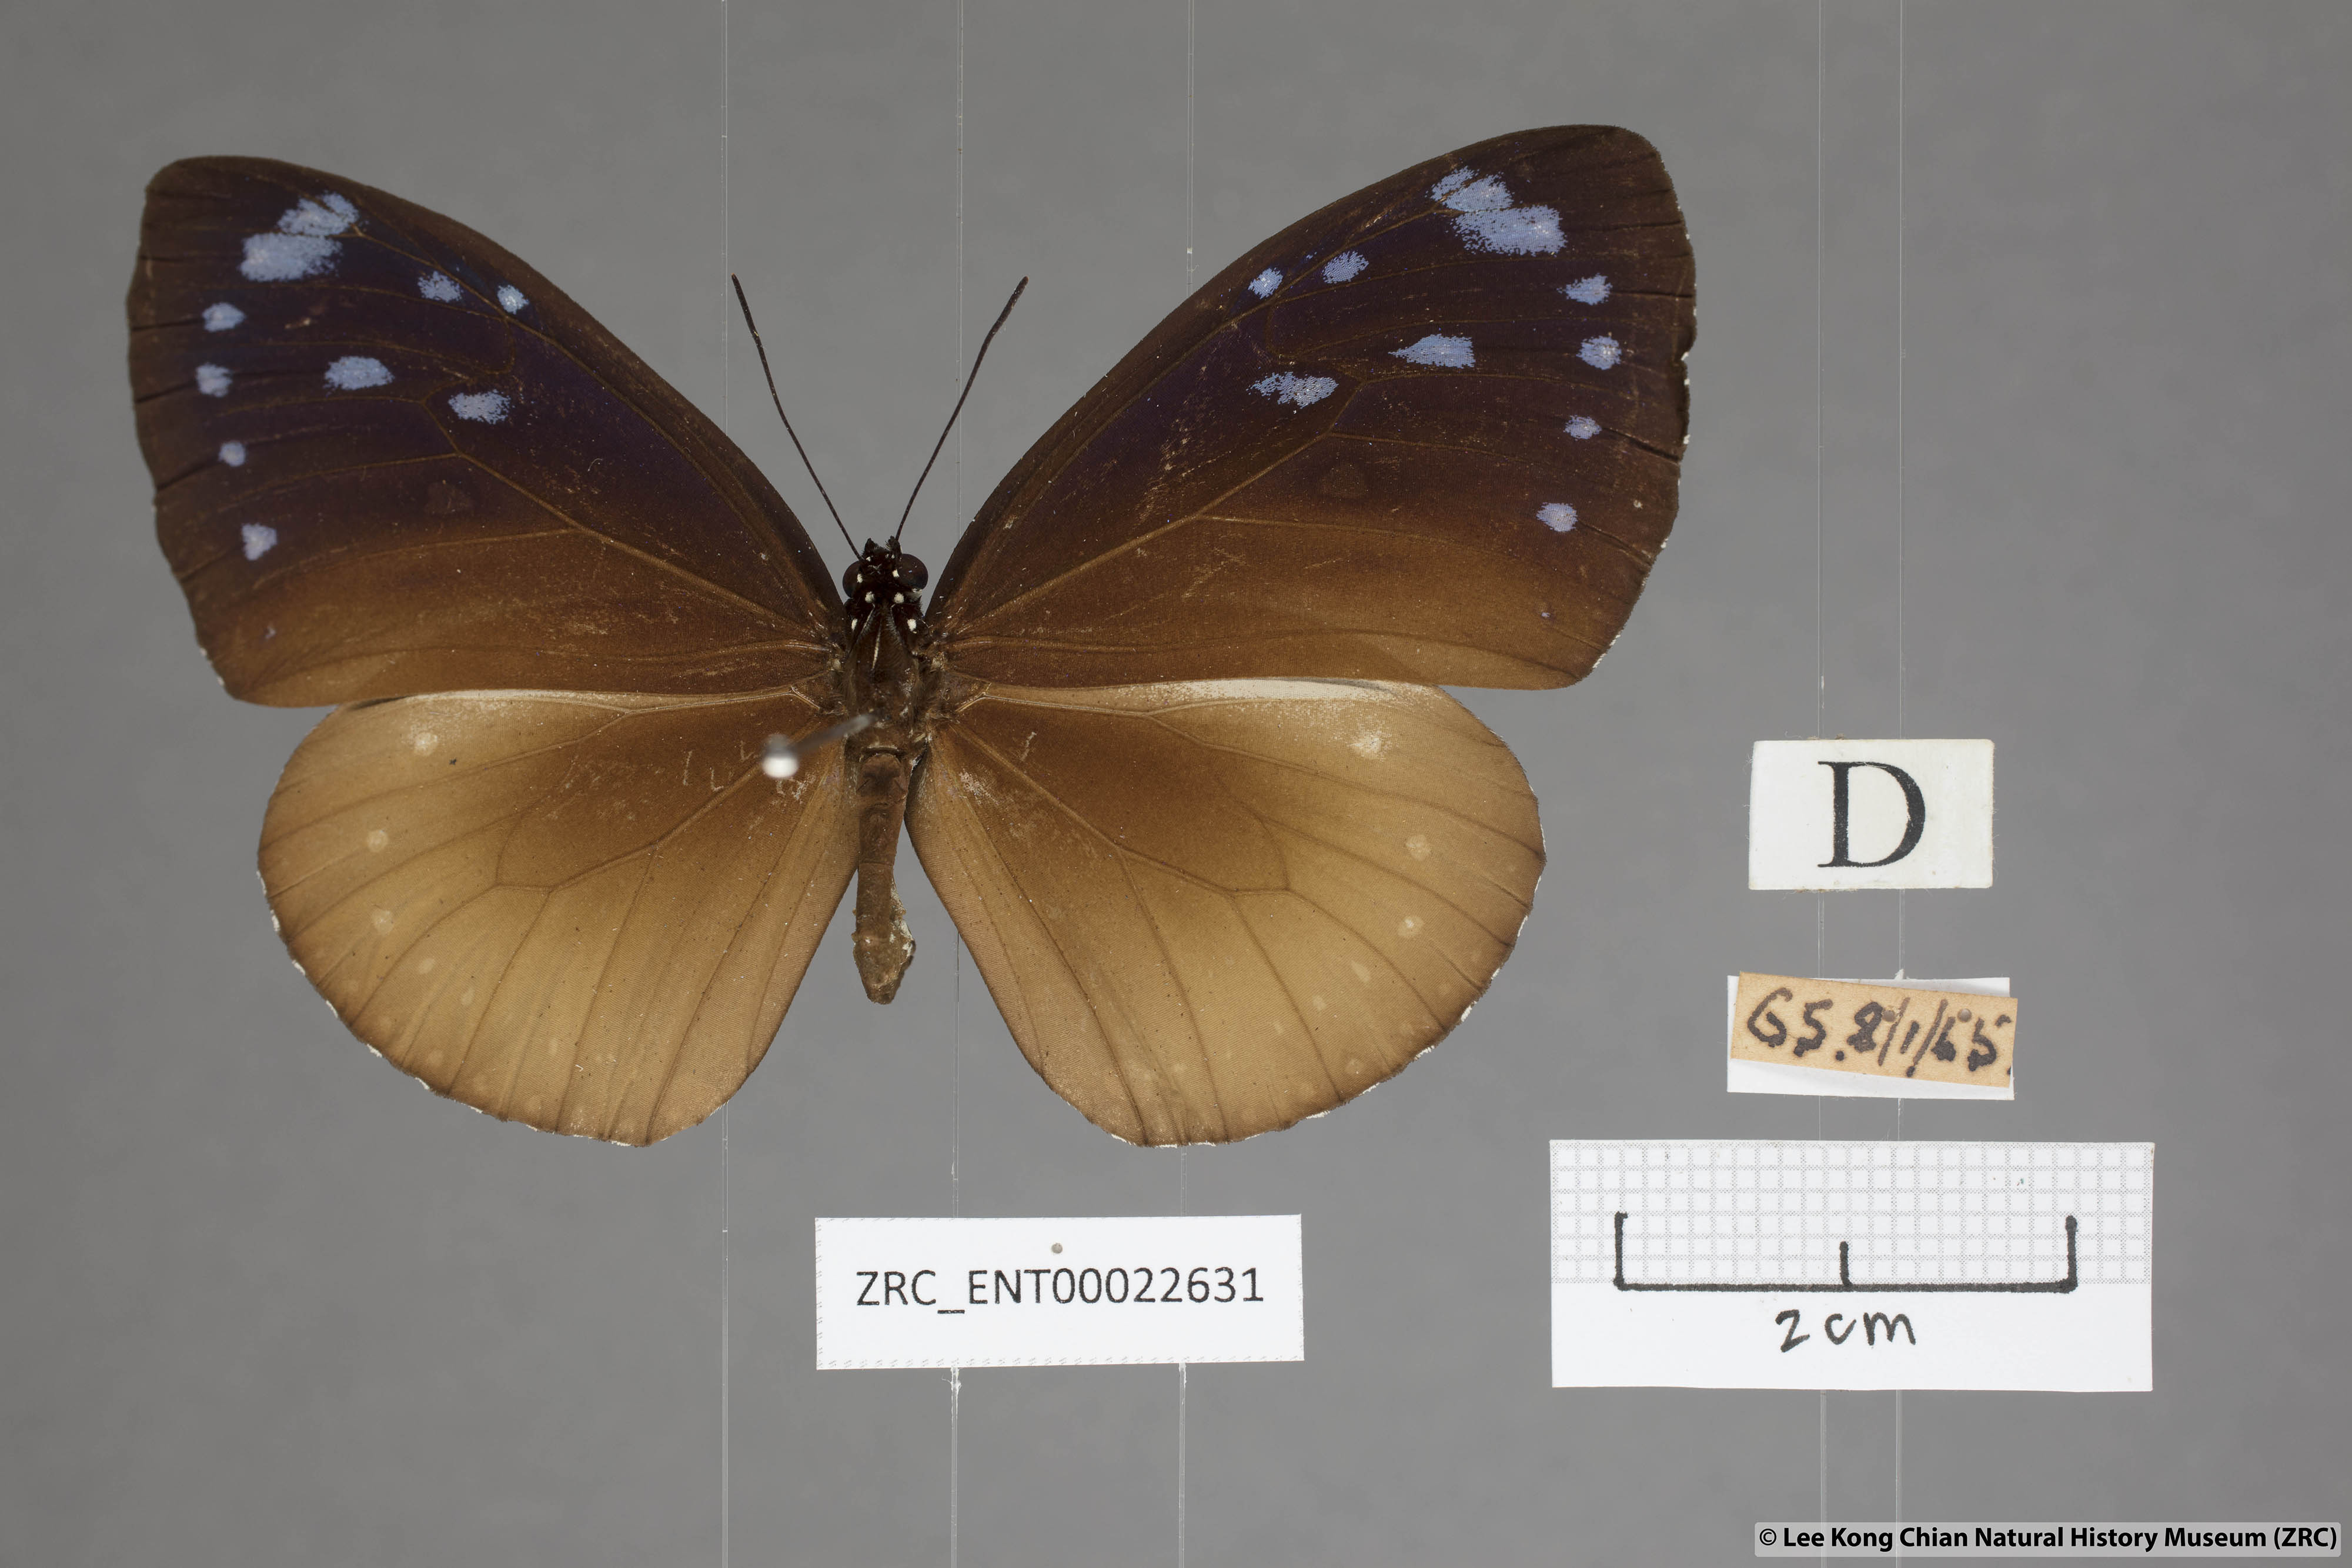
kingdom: Animalia
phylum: Arthropoda
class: Insecta
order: Lepidoptera
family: Nymphalidae
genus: Euploea
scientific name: Euploea tulliolus
